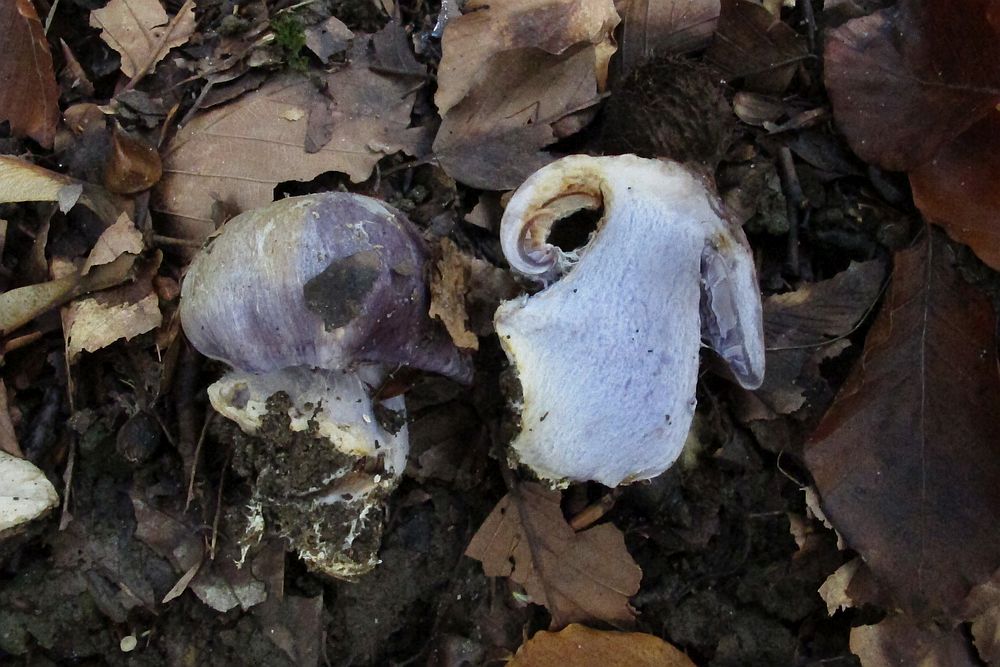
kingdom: Fungi
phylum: Basidiomycota
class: Agaricomycetes
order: Agaricales
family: Cortinariaceae
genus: Cortinarius
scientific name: Cortinarius caerulescens
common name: blåkødet slørhat
